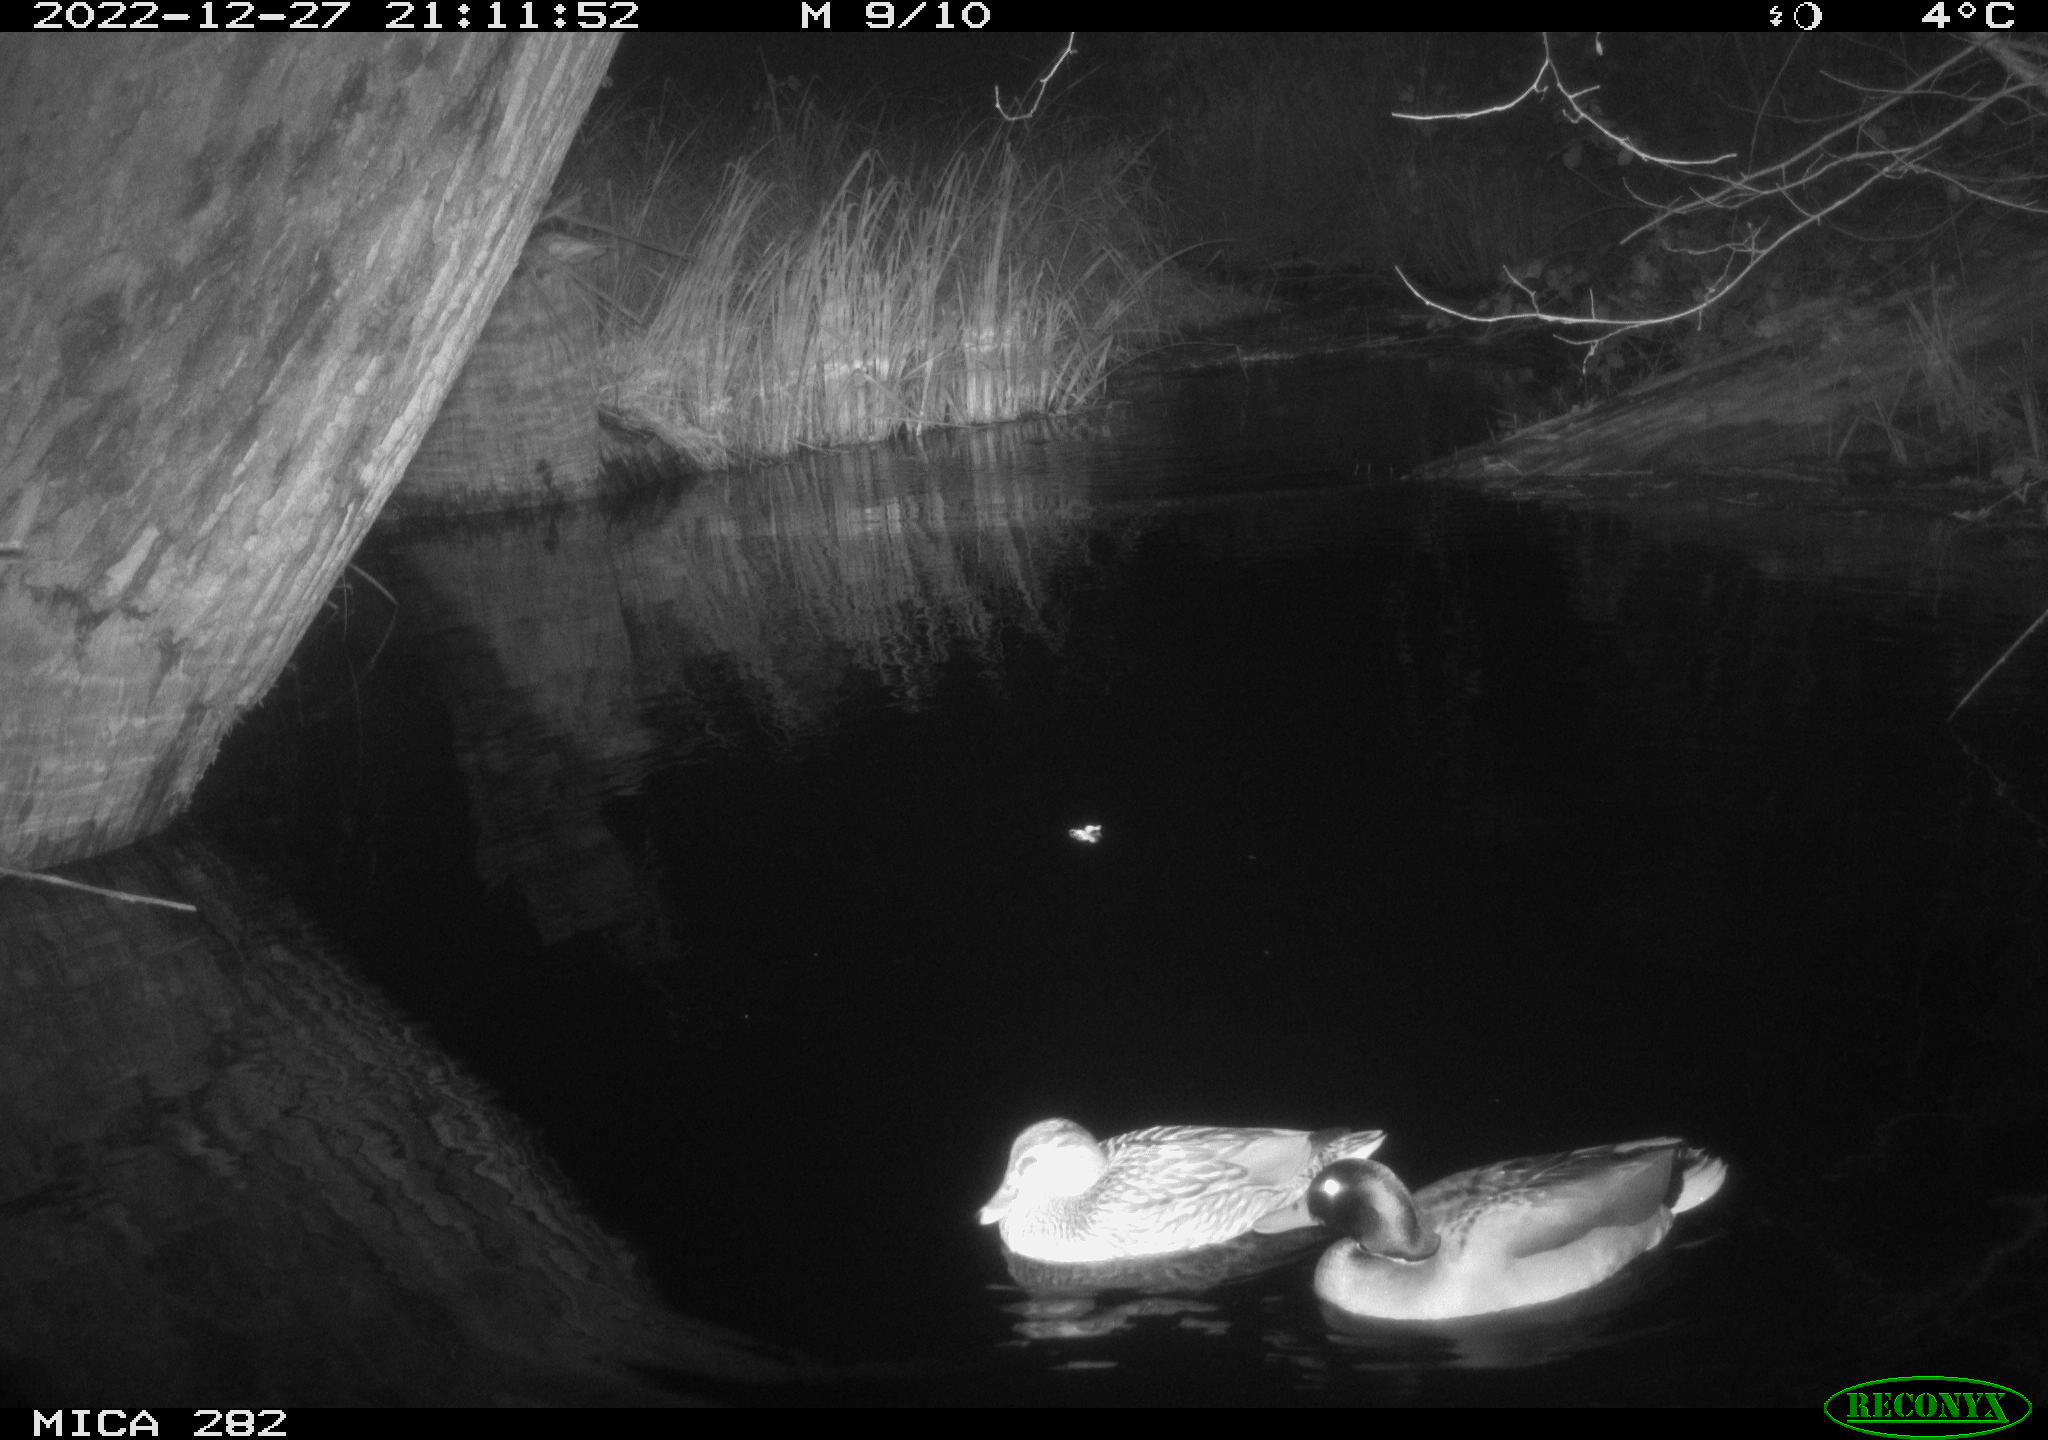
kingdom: Animalia
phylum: Chordata
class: Aves
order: Anseriformes
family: Anatidae
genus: Anas
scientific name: Anas
